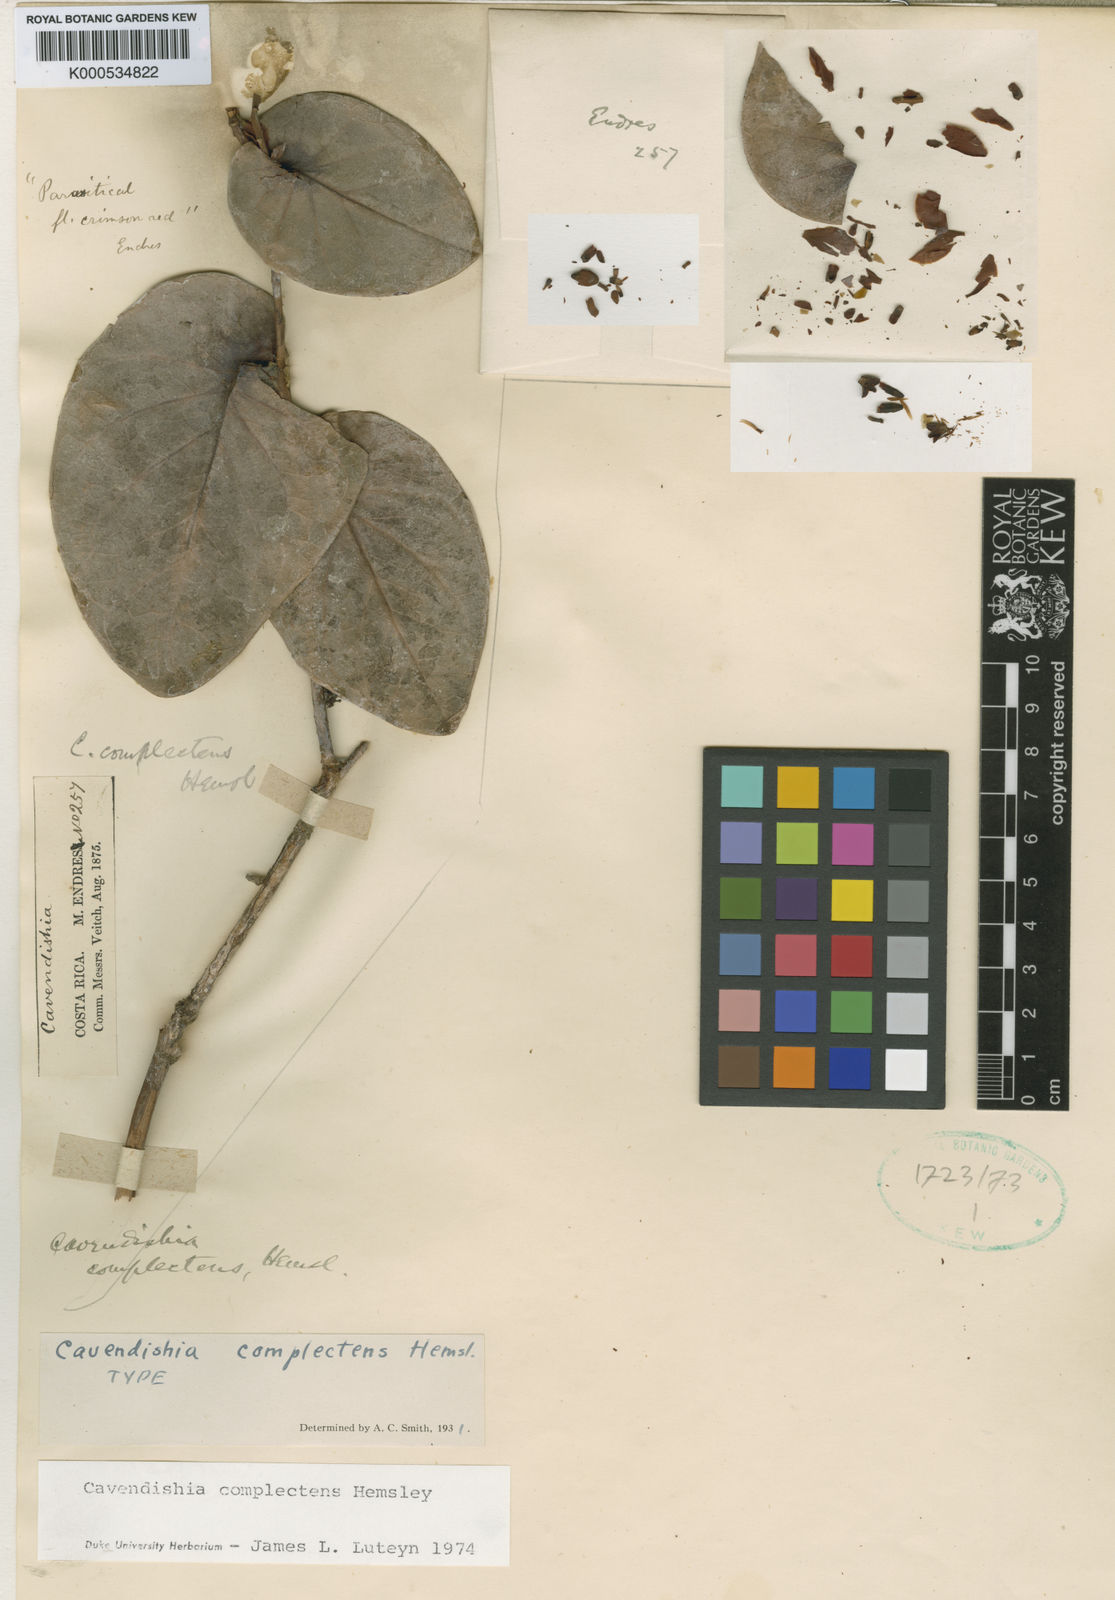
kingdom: Plantae
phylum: Tracheophyta
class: Magnoliopsida
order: Ericales
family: Ericaceae
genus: Cavendishia
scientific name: Cavendishia complectens
